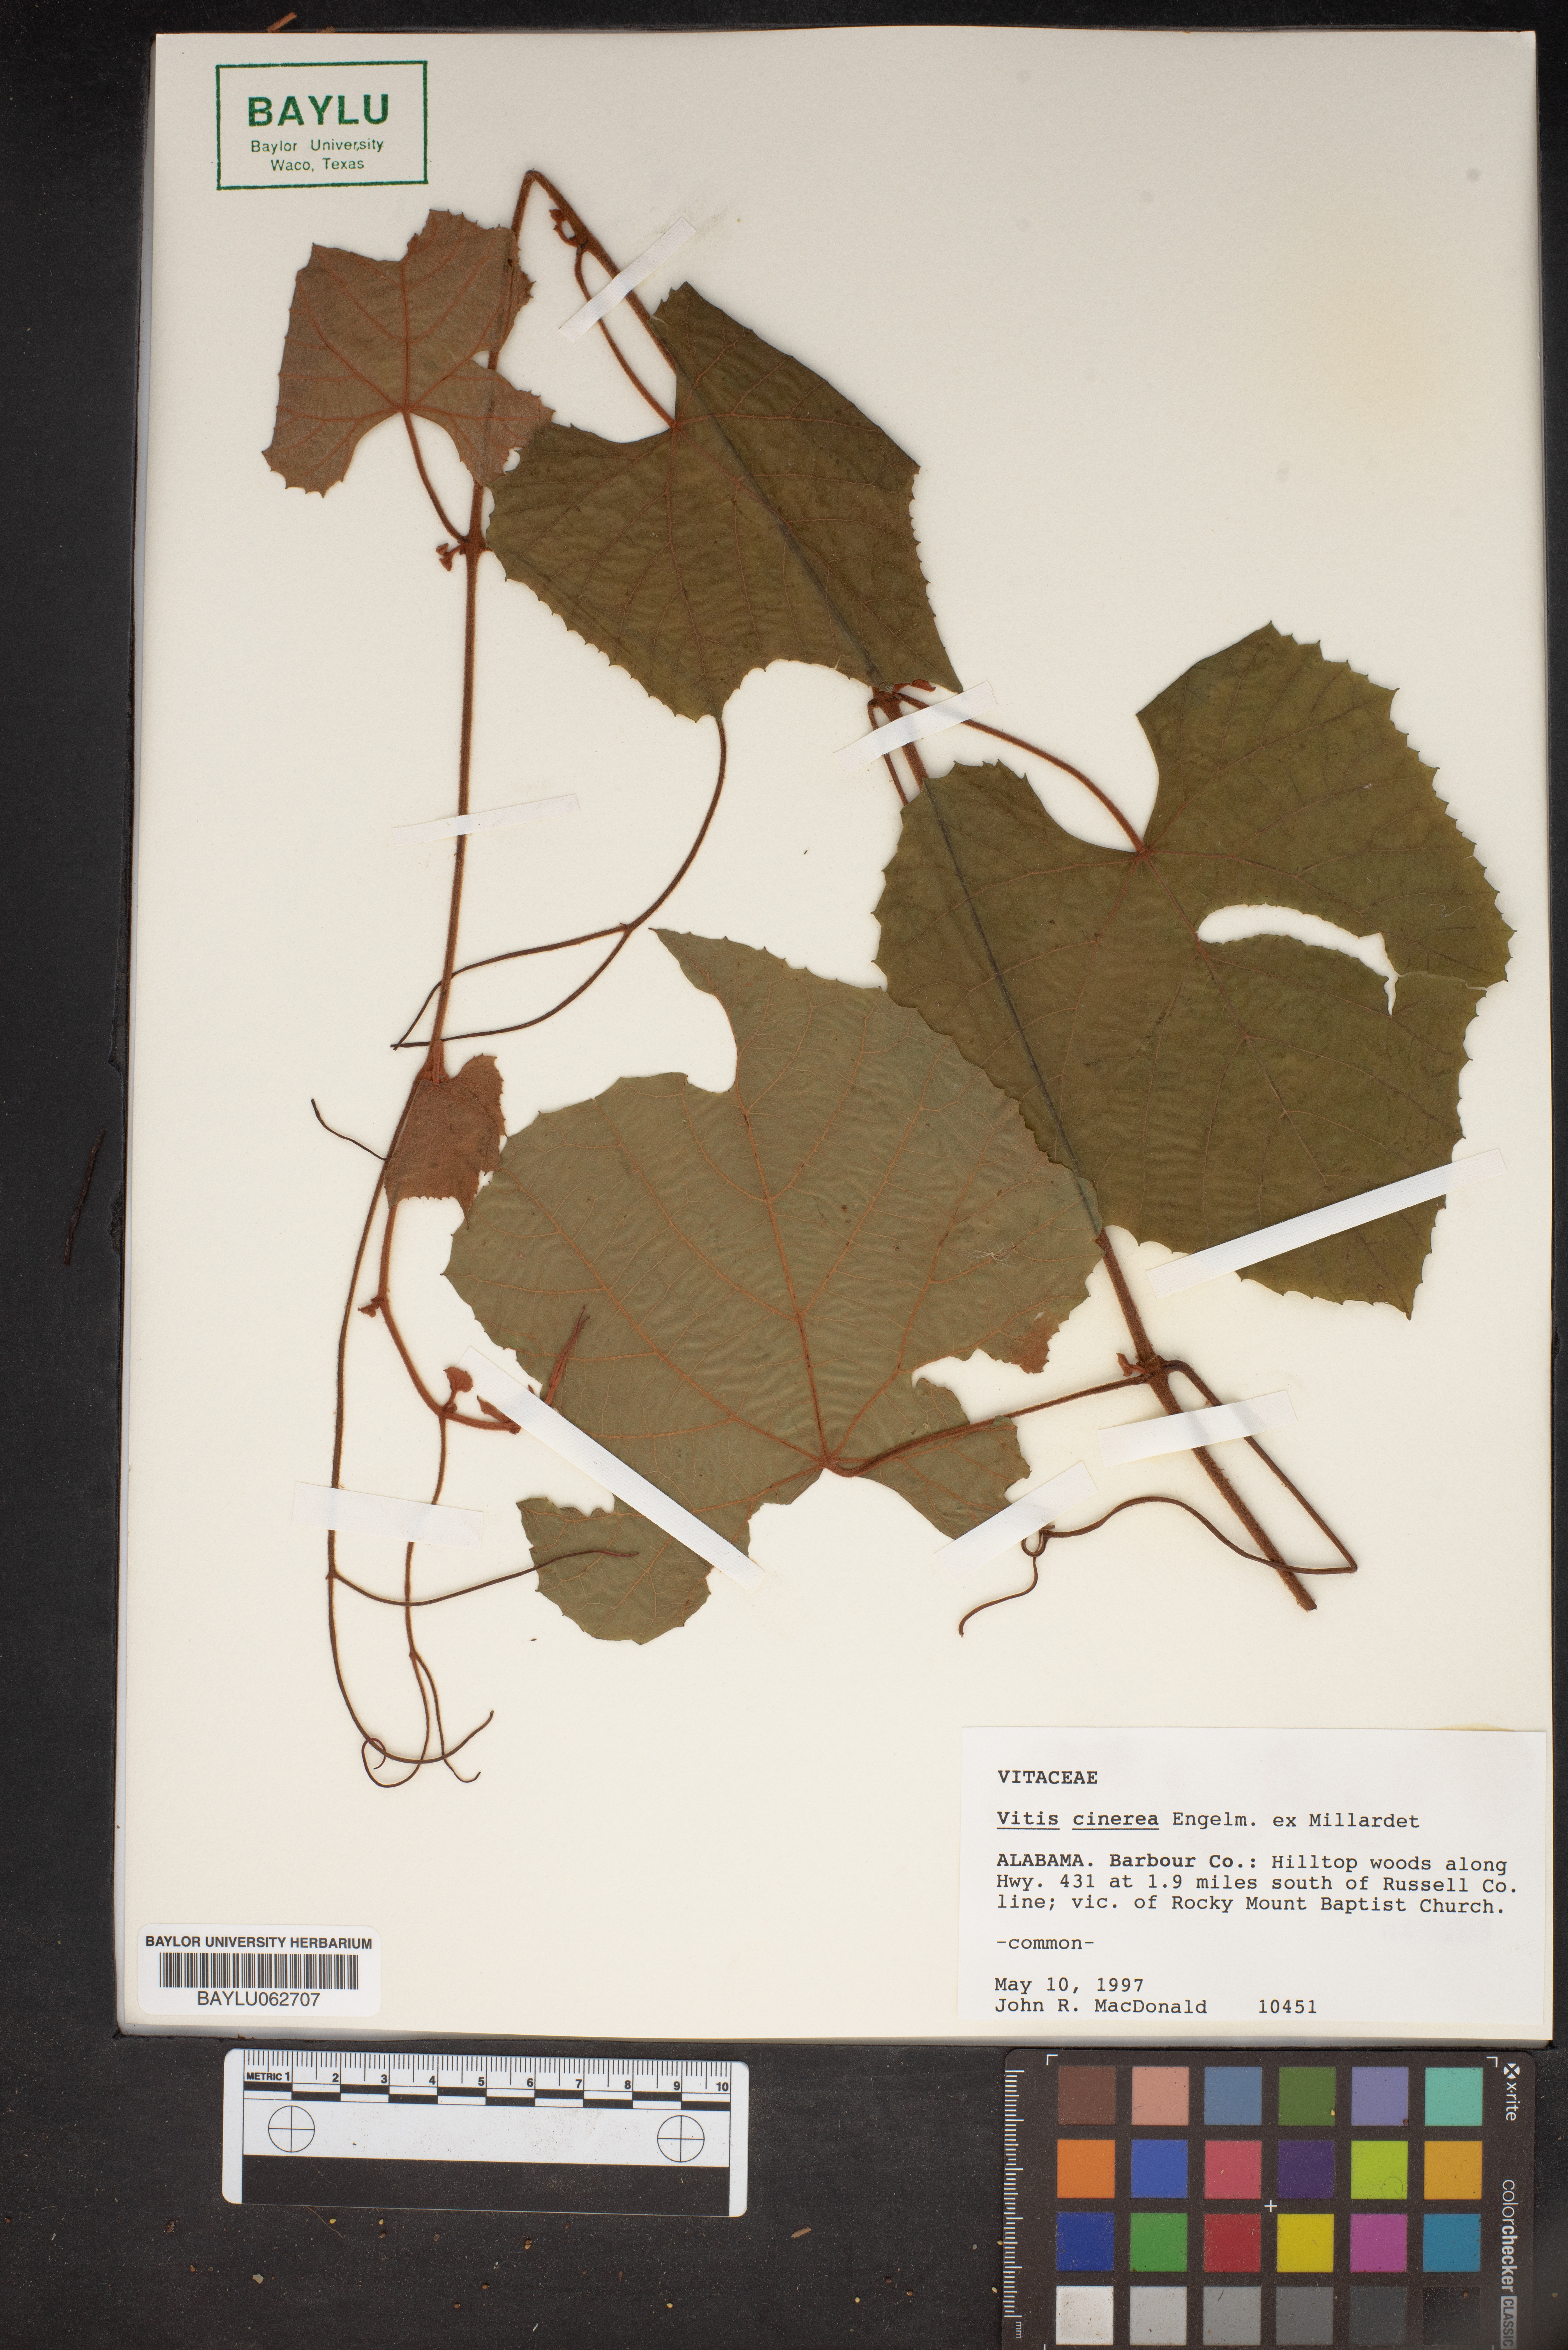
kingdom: Plantae
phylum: Tracheophyta
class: Magnoliopsida
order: Vitales
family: Vitaceae
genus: Vitis
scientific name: Vitis cinerea
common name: Ashy grape
